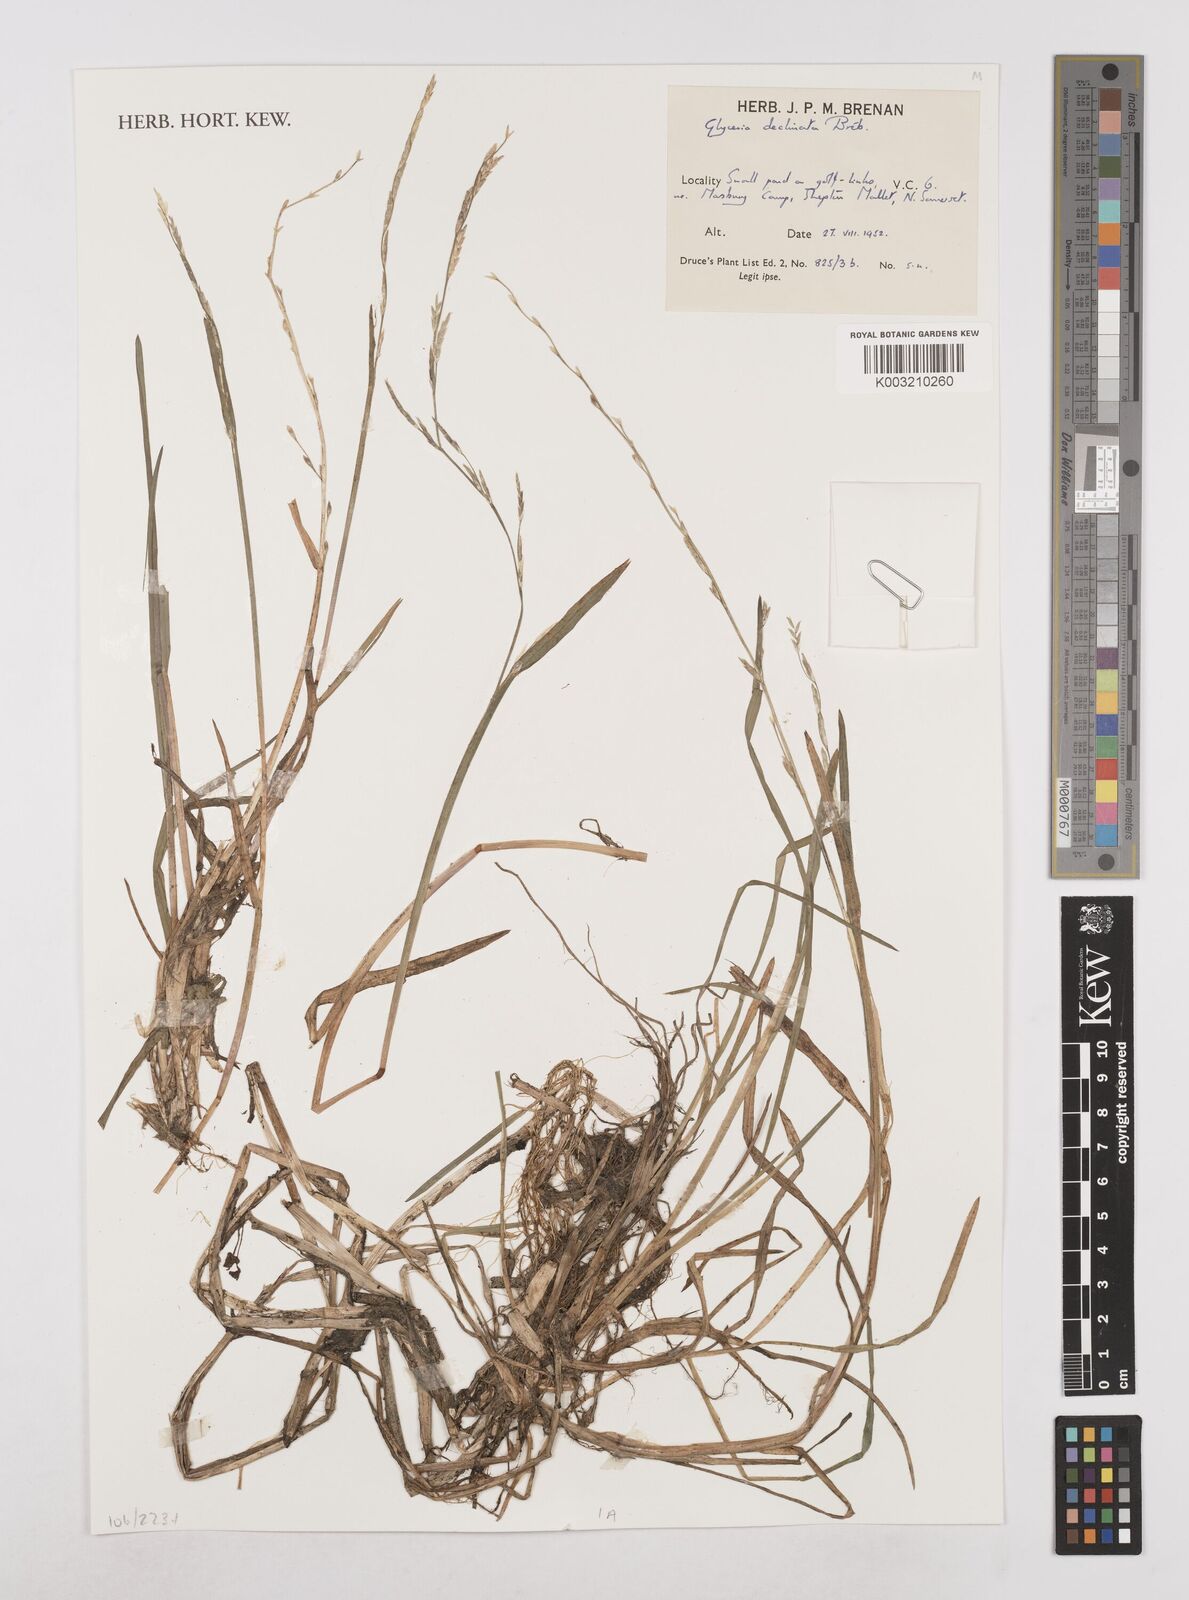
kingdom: Plantae
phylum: Tracheophyta
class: Liliopsida
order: Poales
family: Poaceae
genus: Glyceria
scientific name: Glyceria declinata
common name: Small sweet-grass
